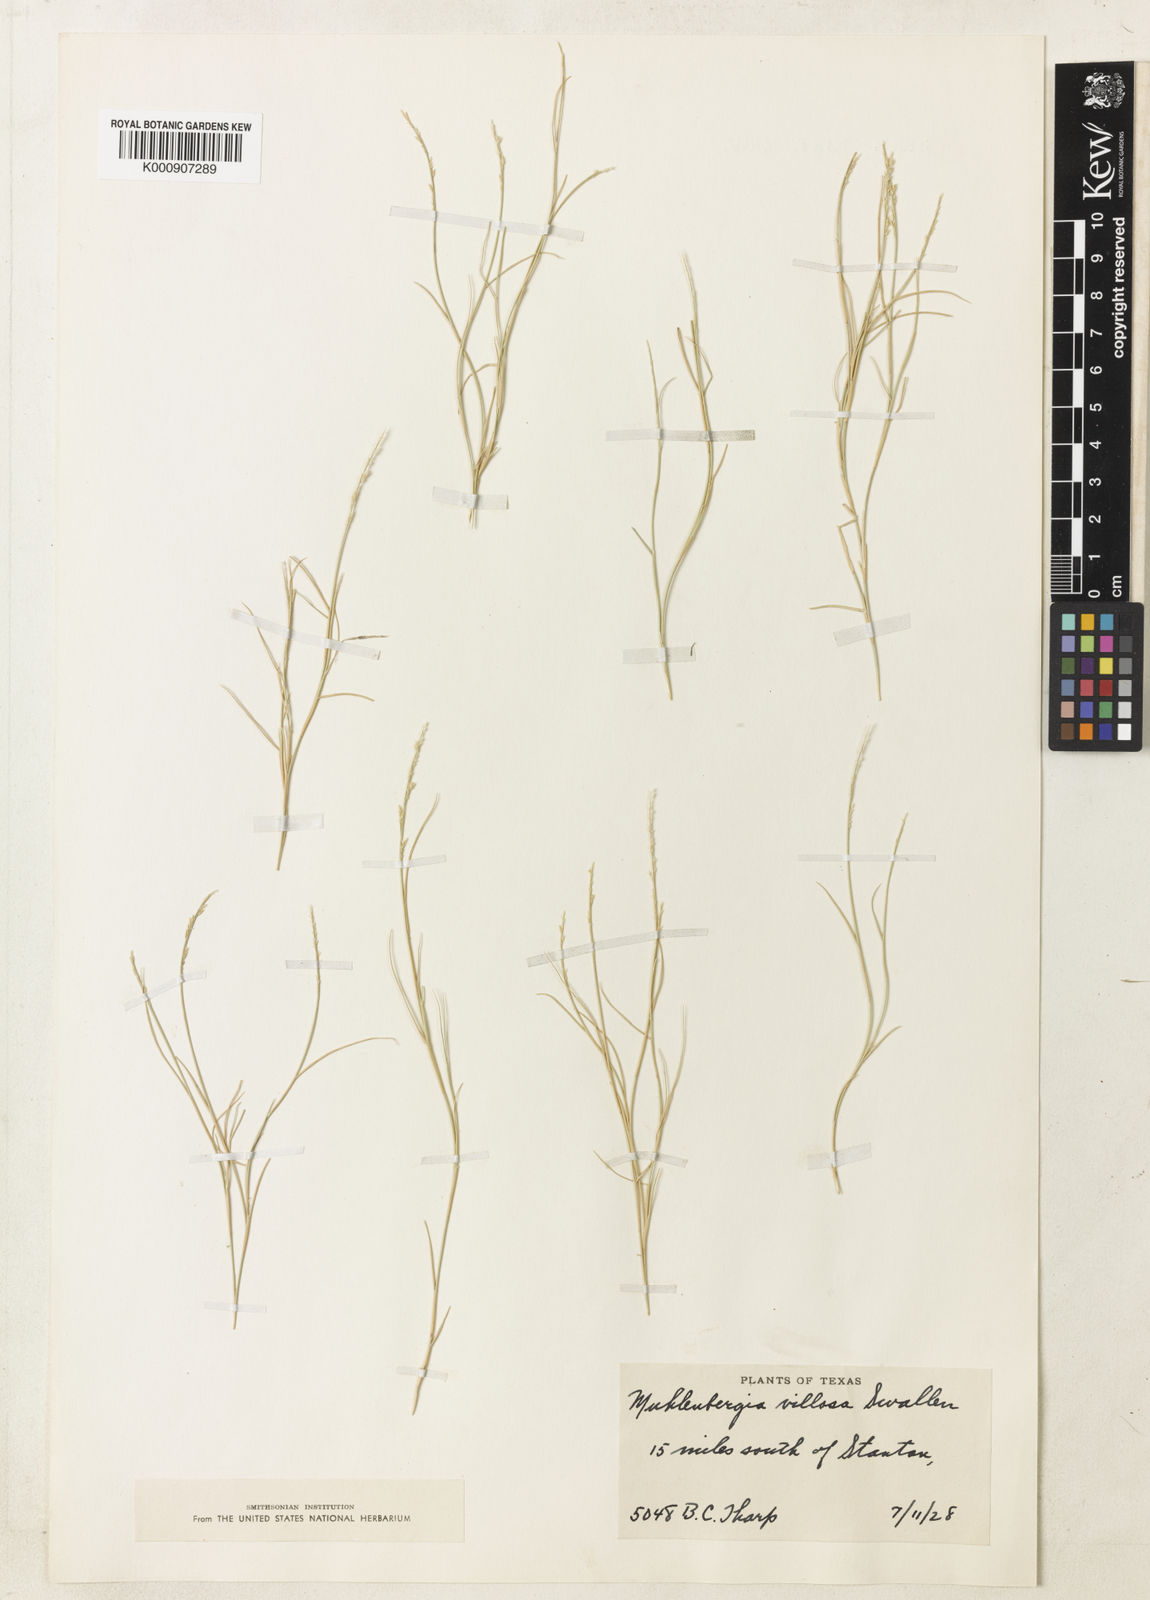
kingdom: Plantae
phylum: Tracheophyta
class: Liliopsida
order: Poales
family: Poaceae
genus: Muhlenbergia
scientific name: Muhlenbergia villiflora
